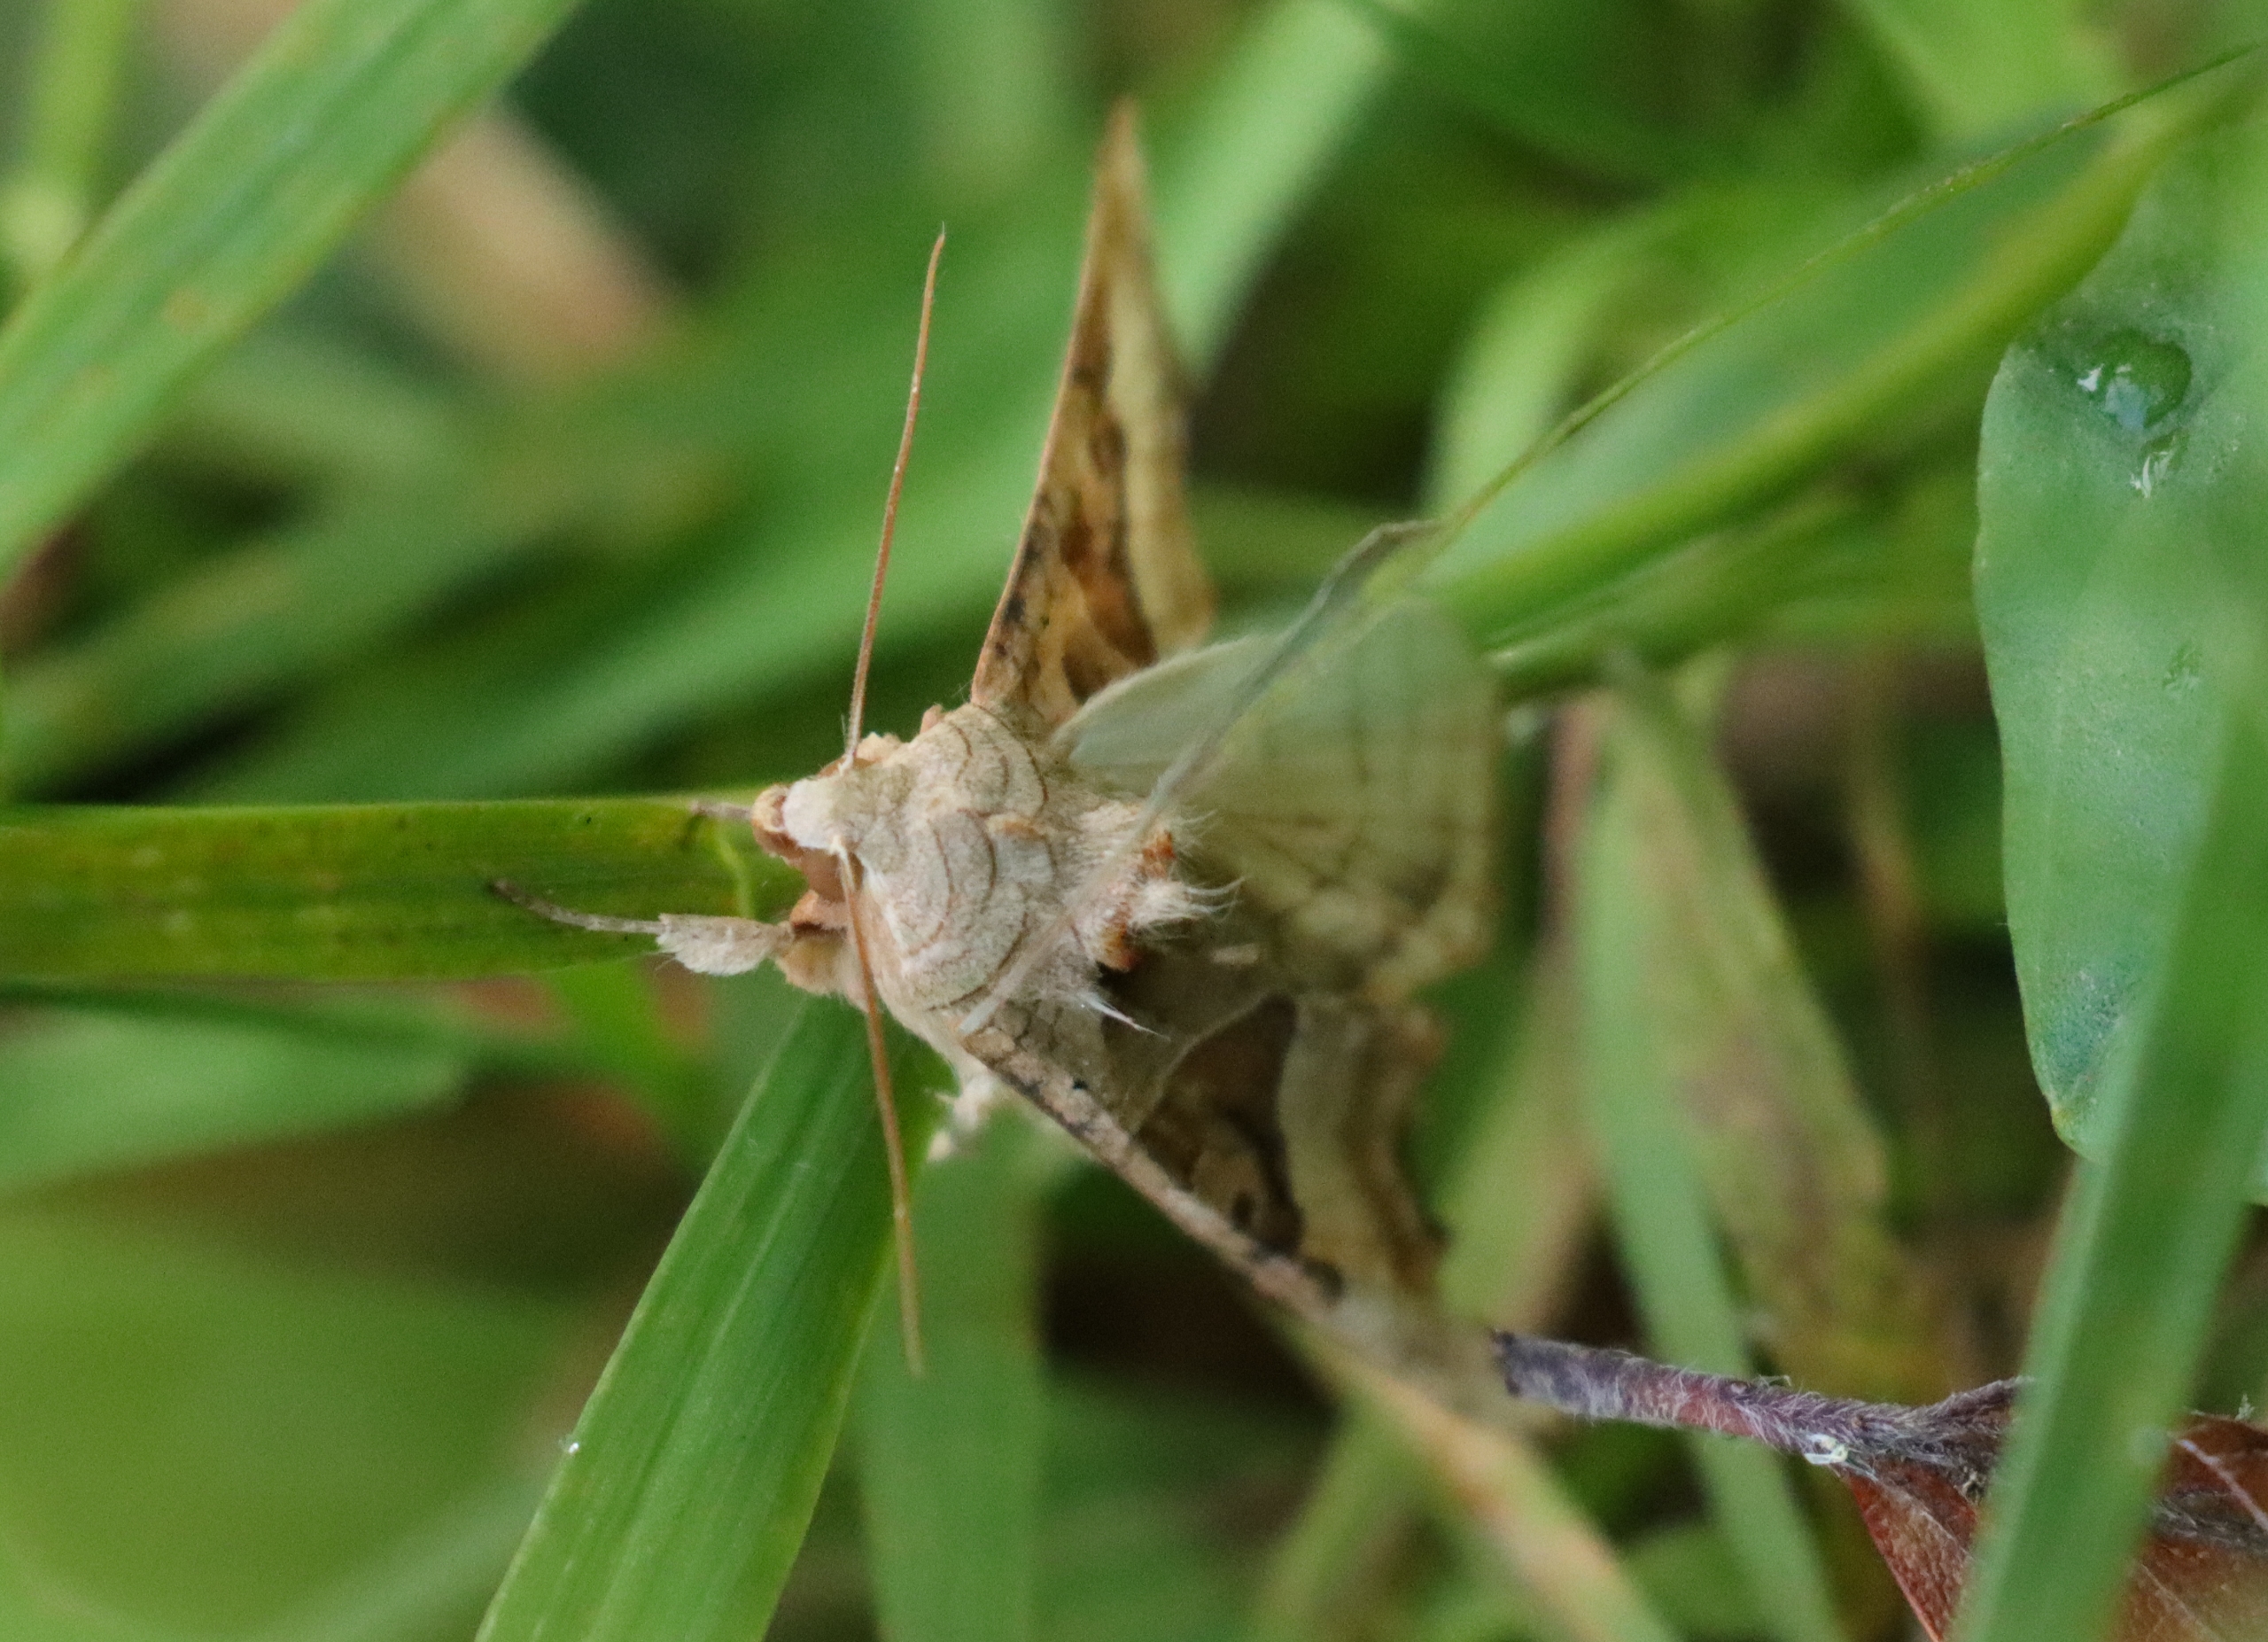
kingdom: Animalia
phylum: Arthropoda
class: Insecta
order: Lepidoptera
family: Noctuidae
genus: Phlogophora
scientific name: Phlogophora meticulosa
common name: Agatugle
